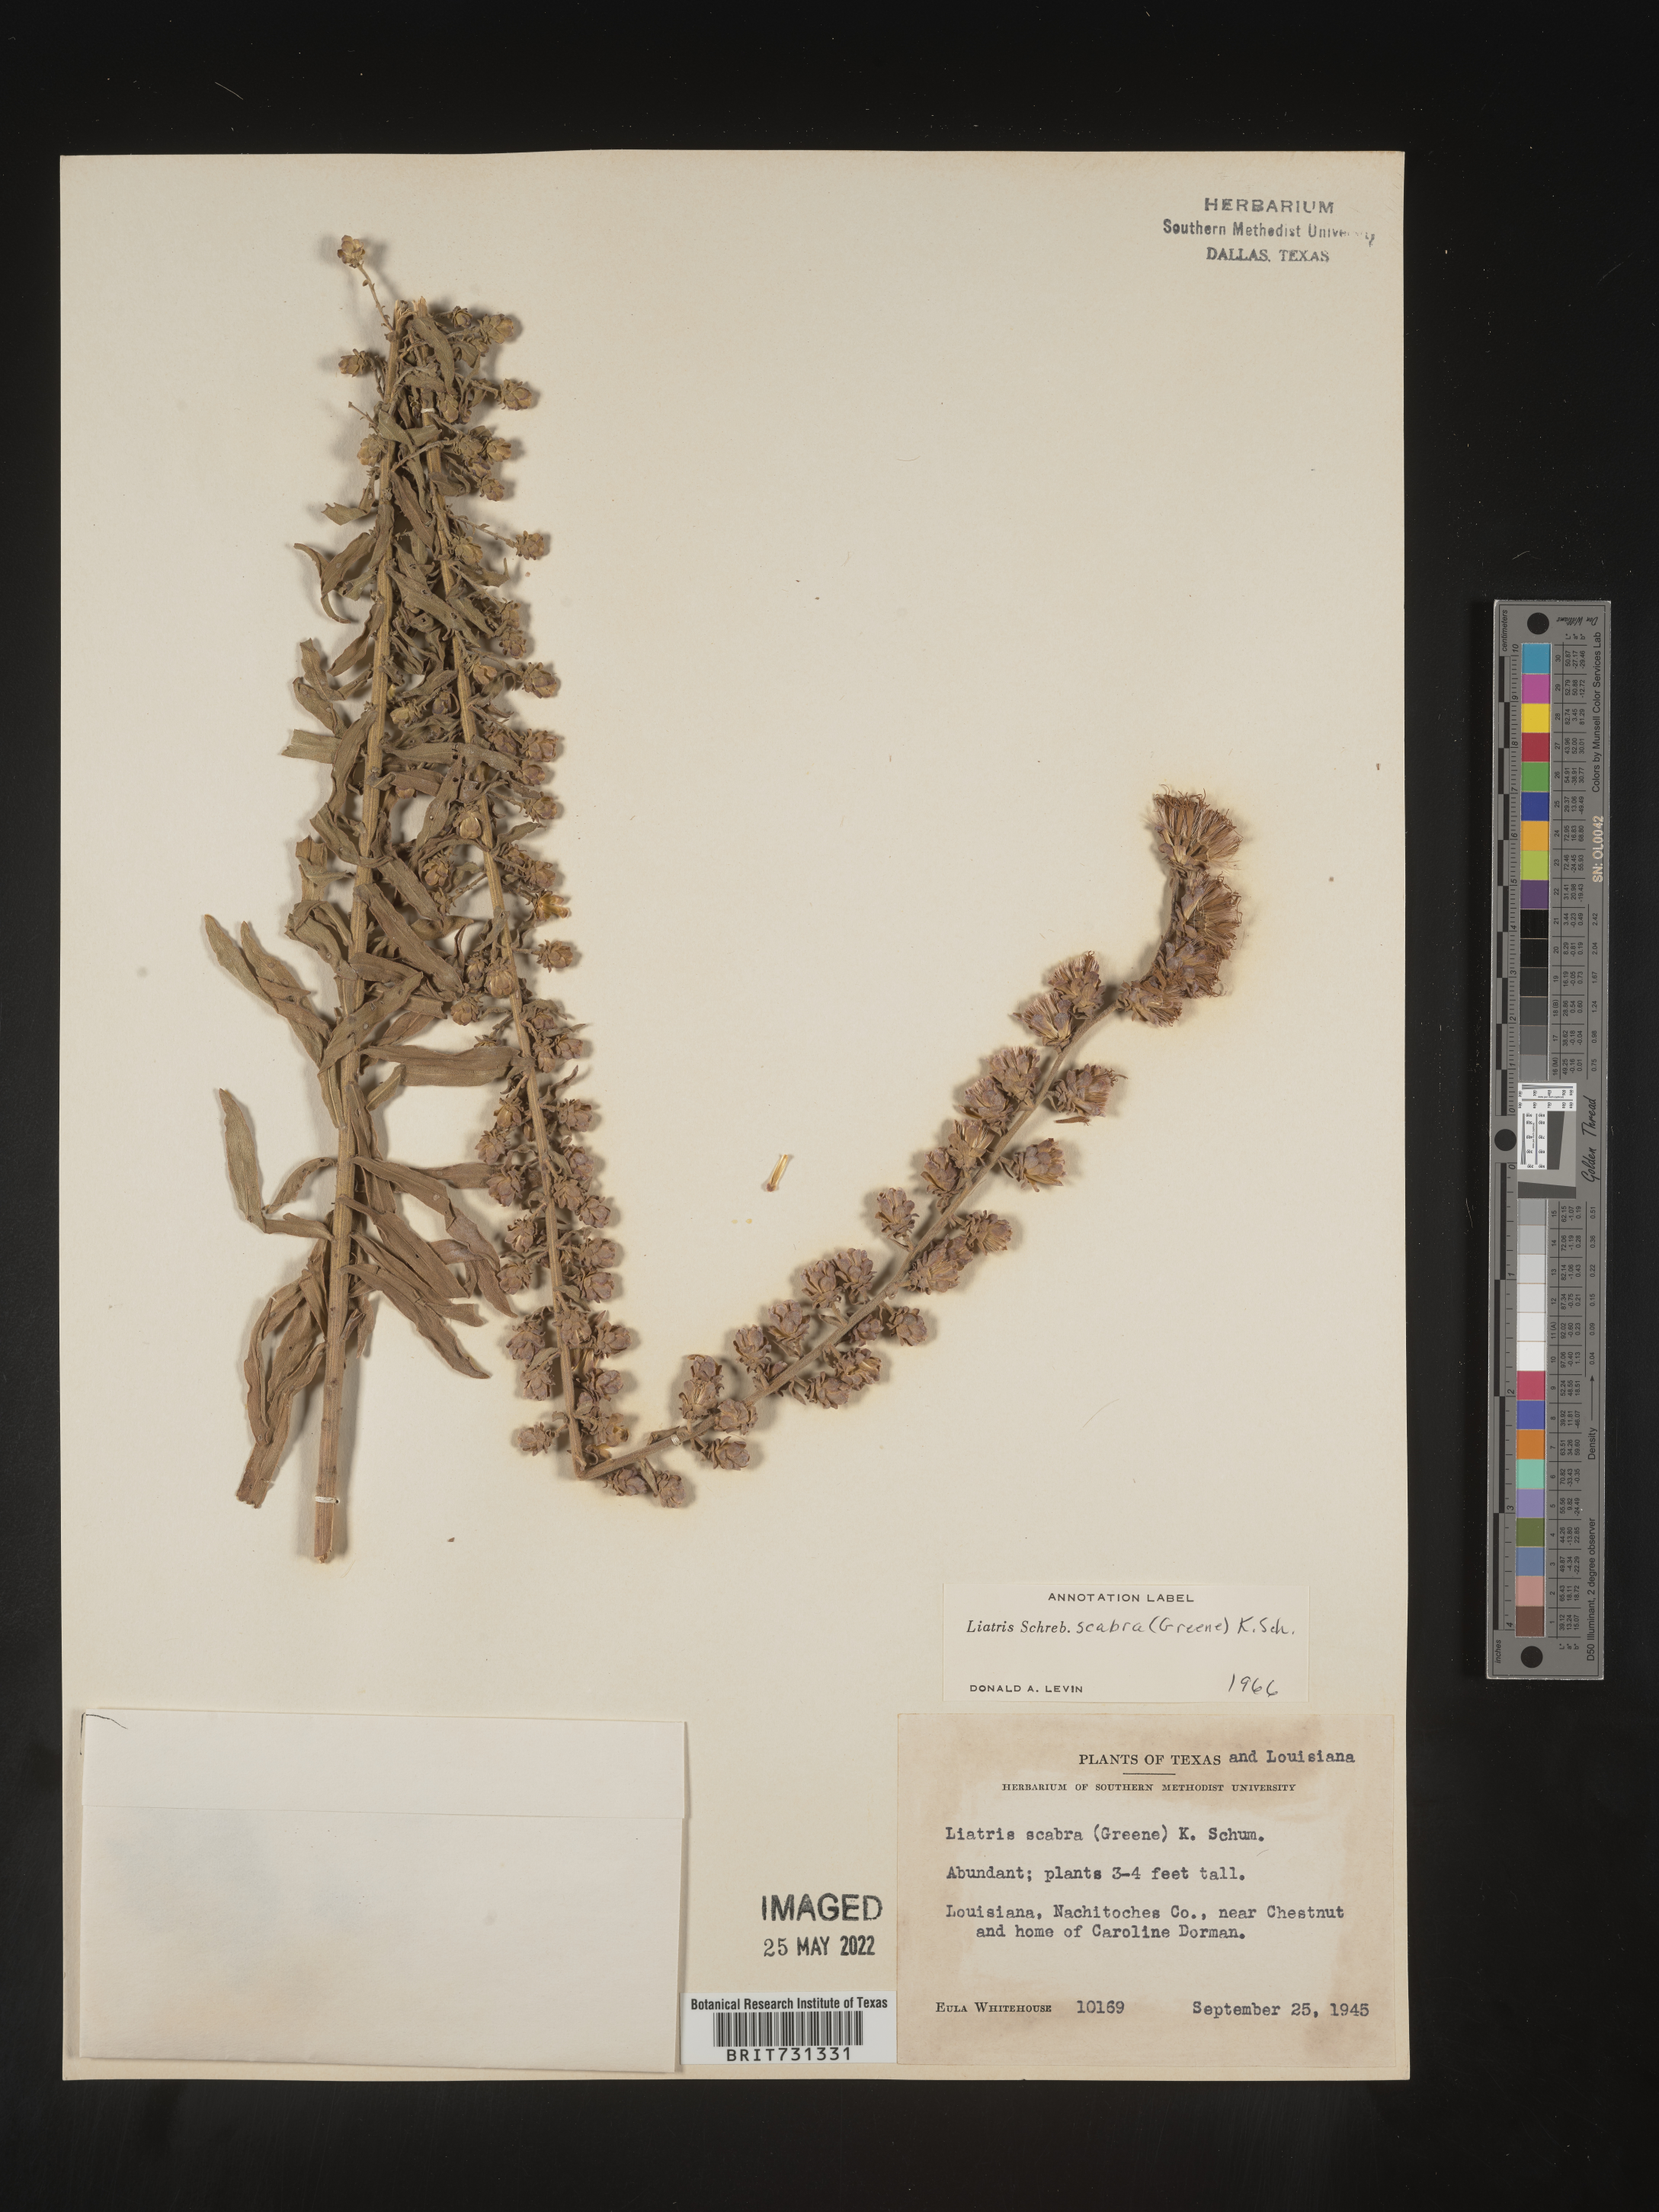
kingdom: Plantae
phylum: Tracheophyta
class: Magnoliopsida
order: Asterales
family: Asteraceae
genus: Liatris
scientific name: Liatris squarrulosa
